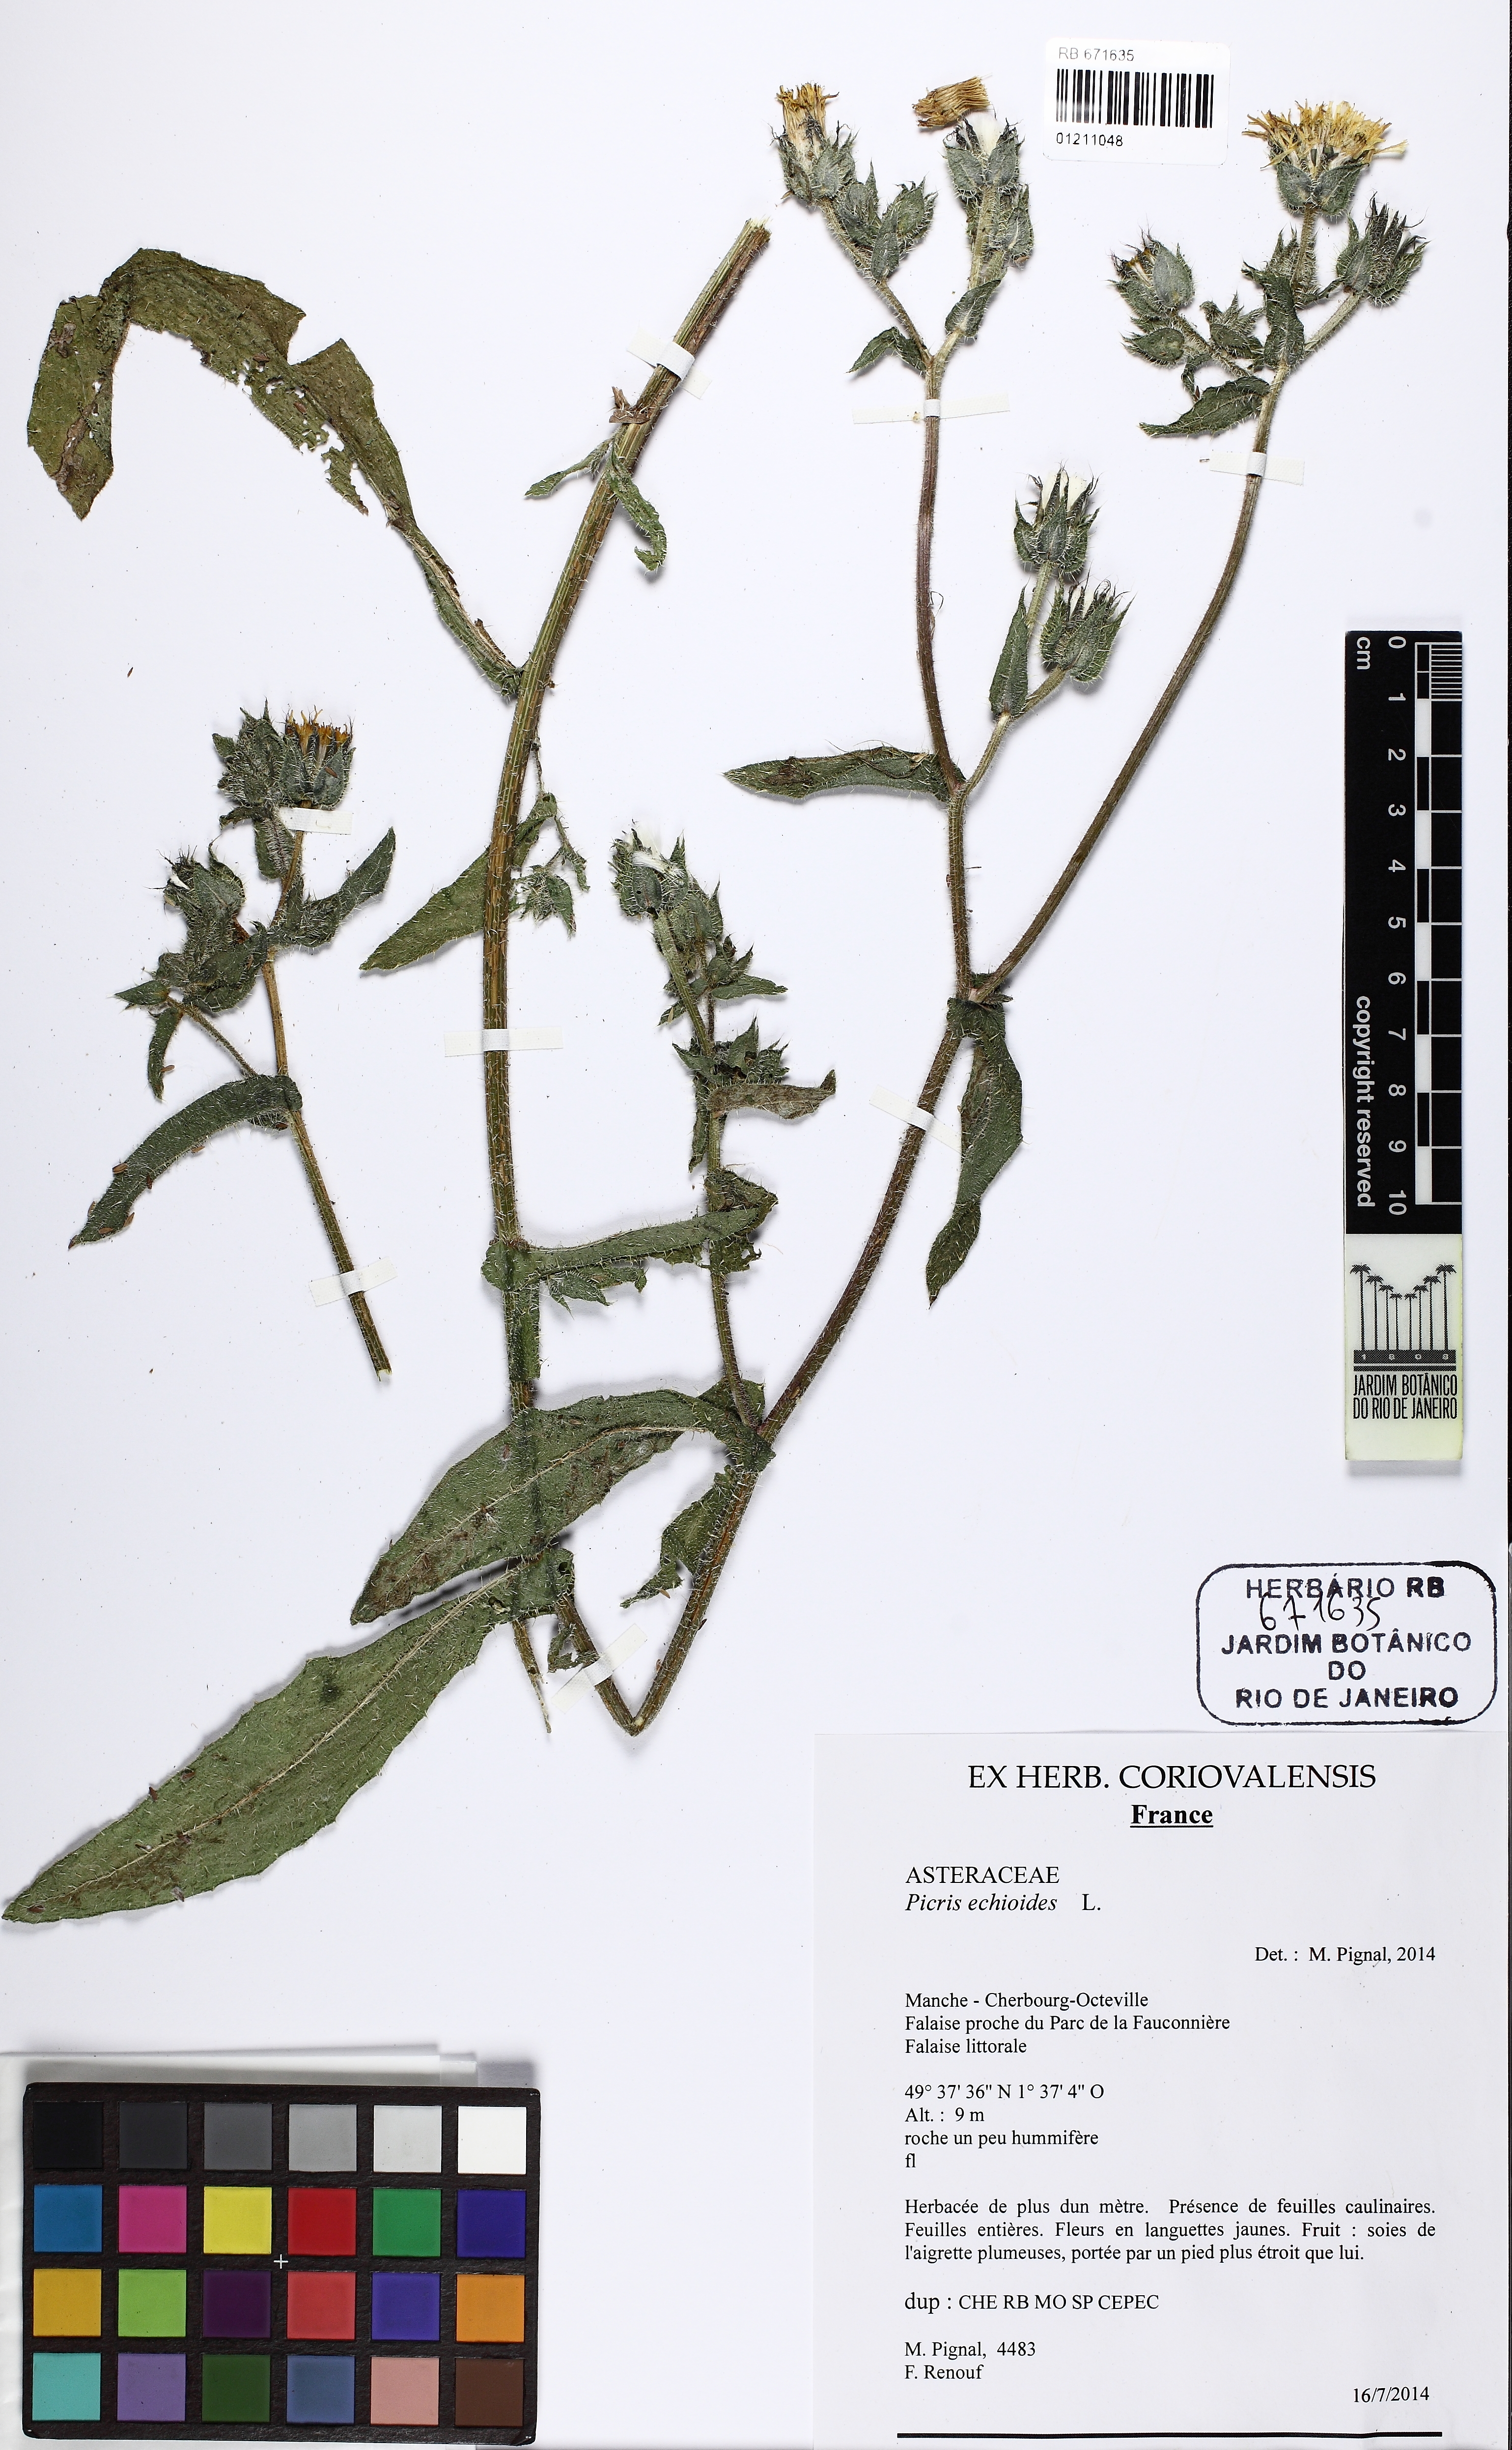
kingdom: Plantae
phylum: Tracheophyta
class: Magnoliopsida
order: Asterales
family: Asteraceae
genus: Helminthotheca
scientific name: Helminthotheca echioides
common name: Ox-tongue
